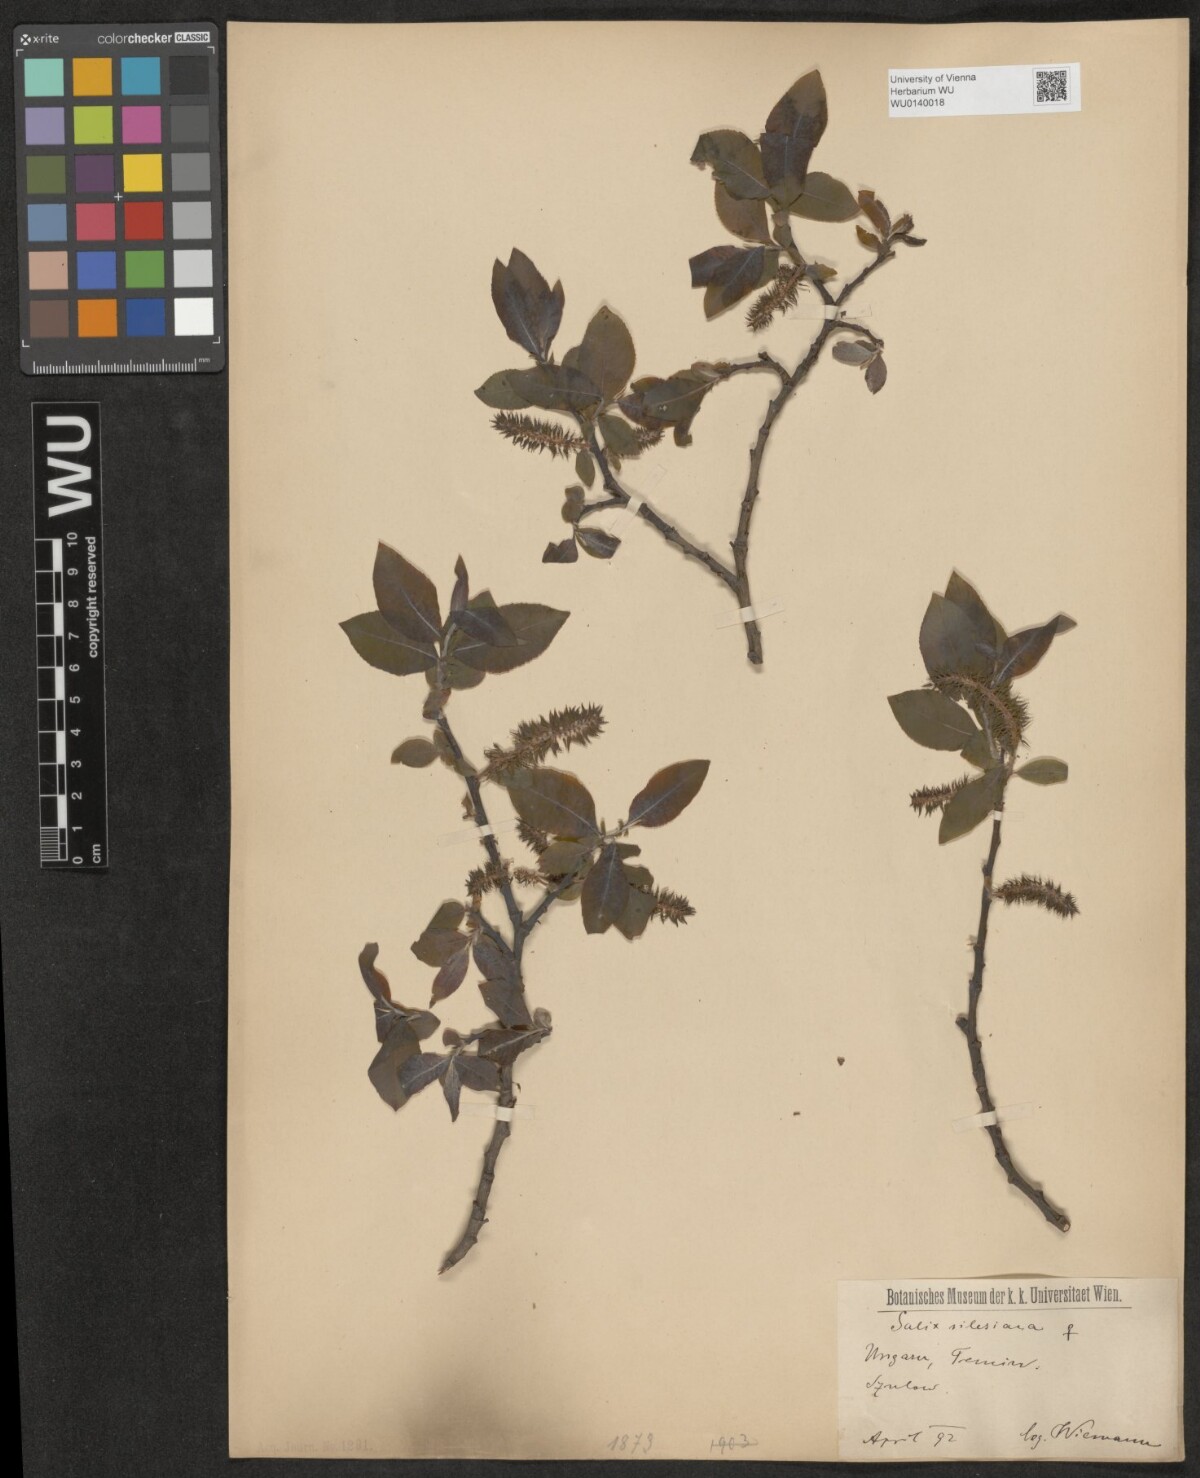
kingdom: Plantae
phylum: Tracheophyta
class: Magnoliopsida
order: Malpighiales
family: Salicaceae
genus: Salix
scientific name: Salix silesiaca
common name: Silesian willow
